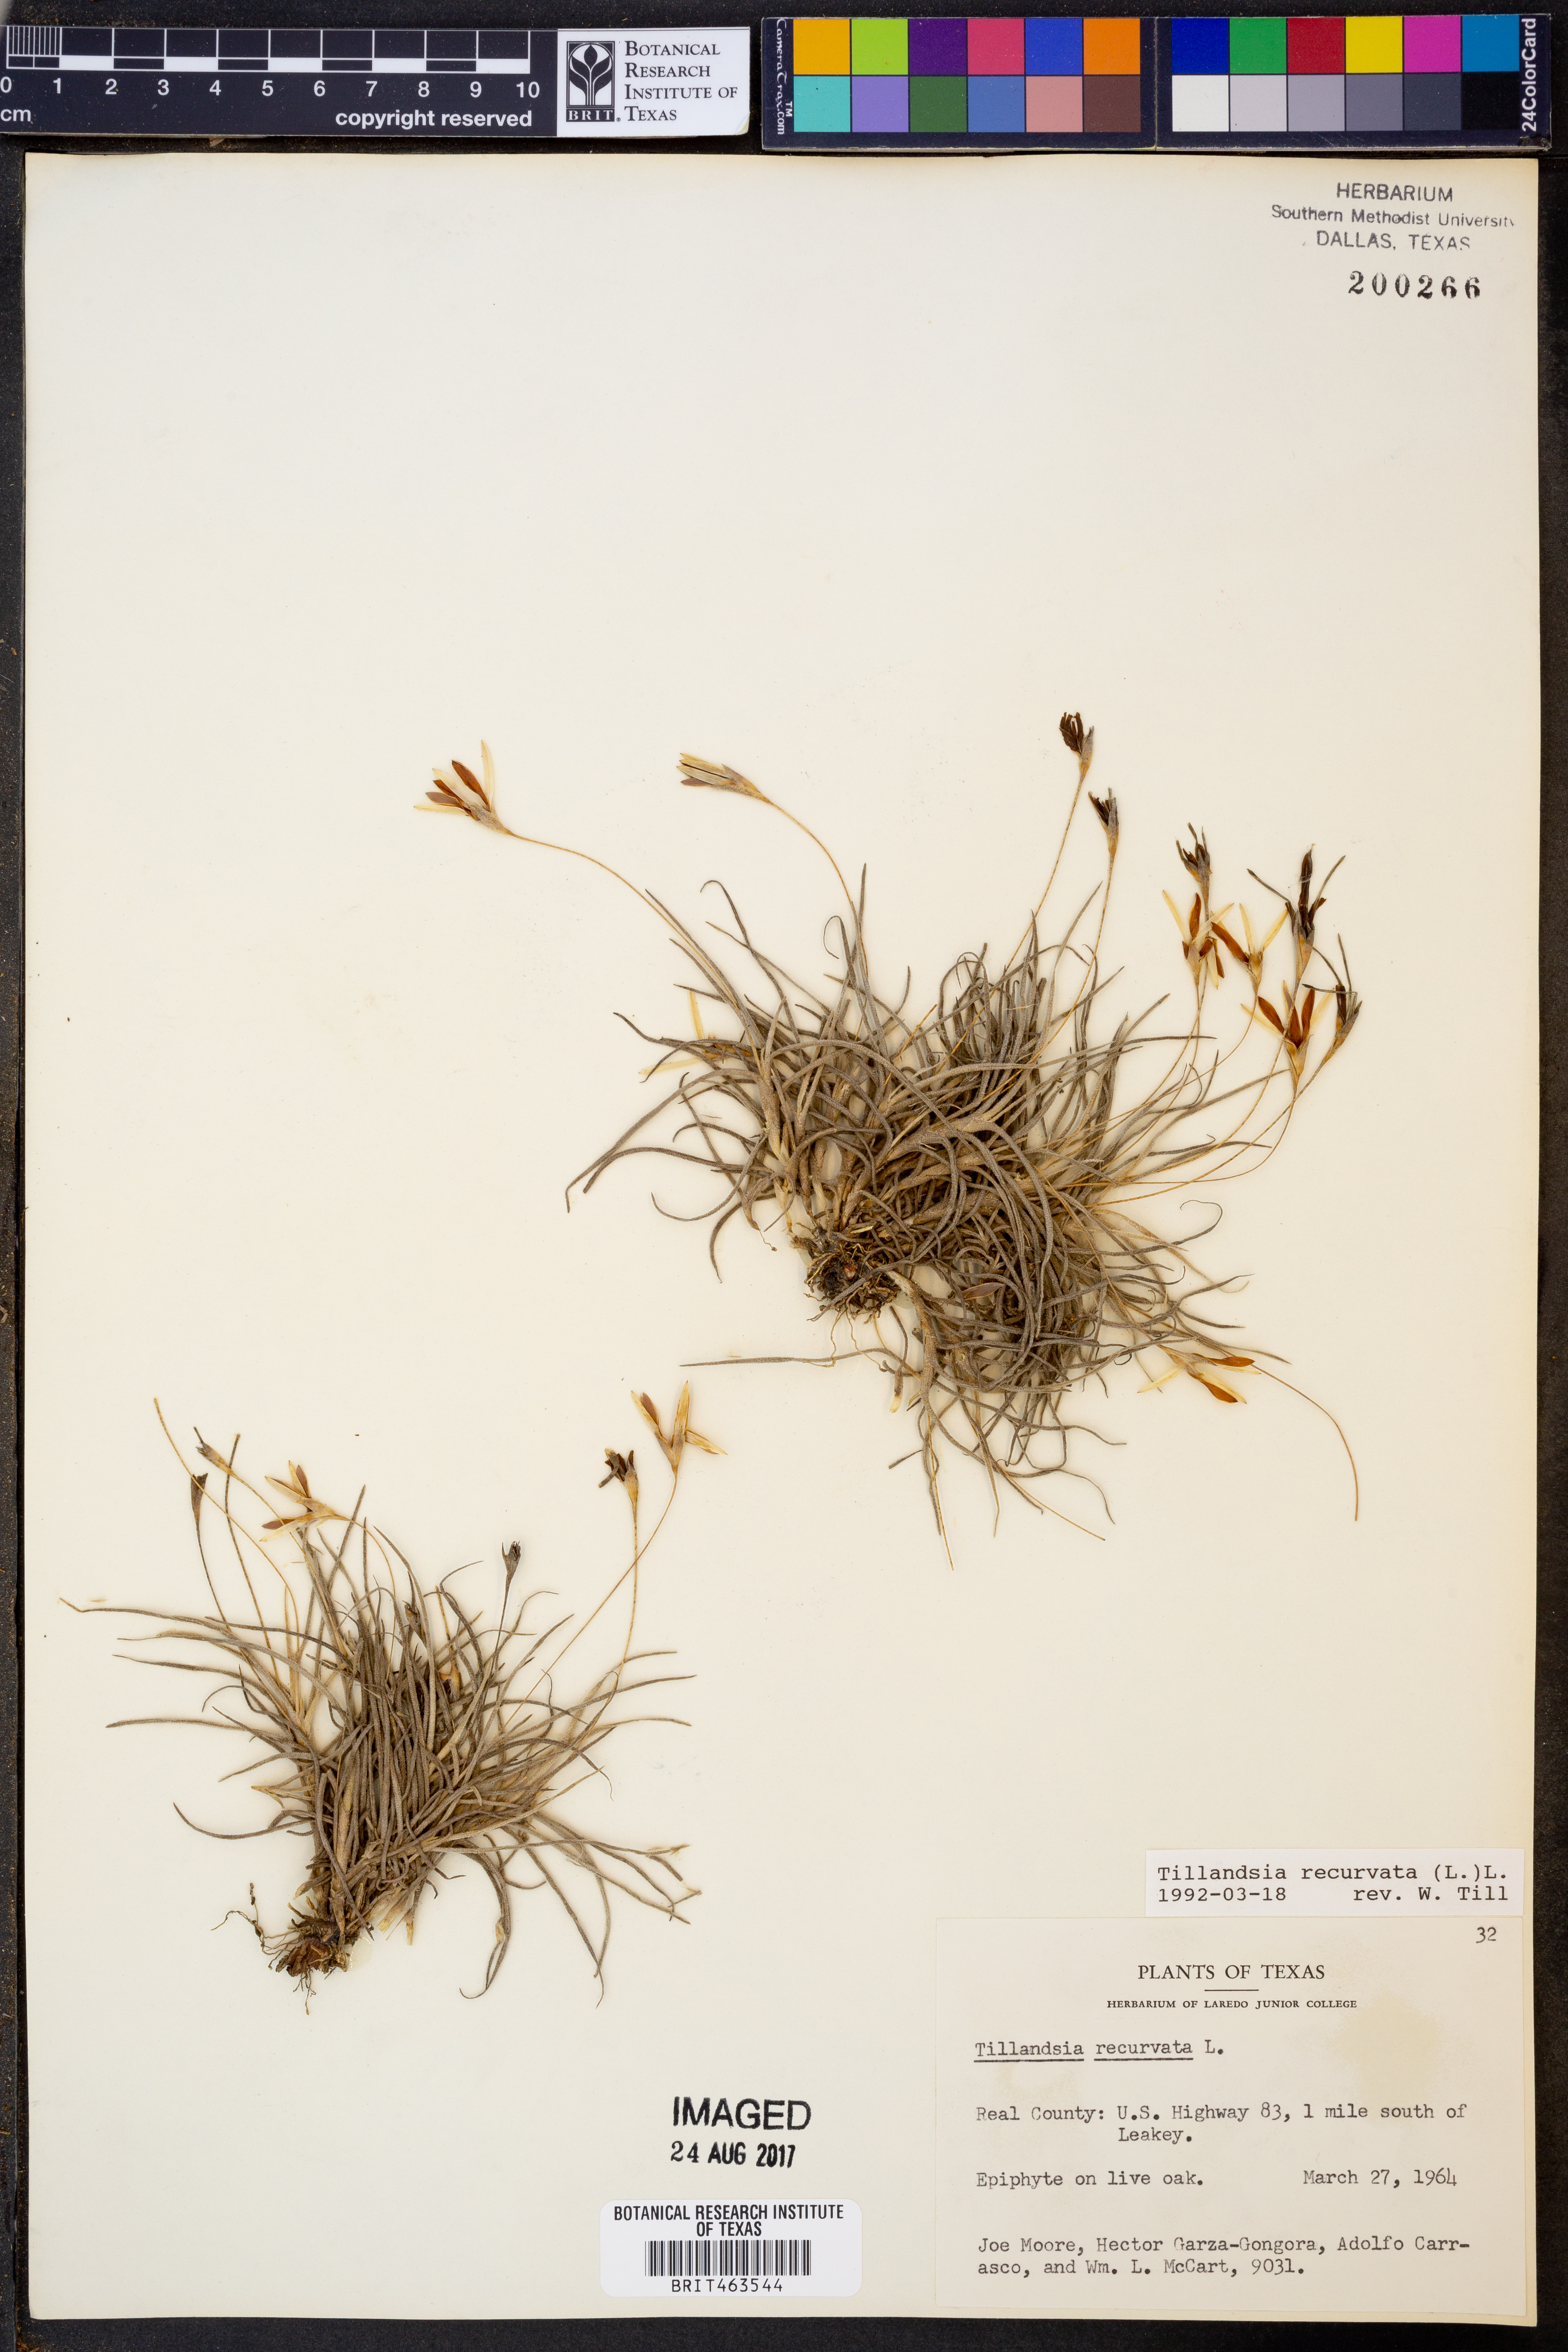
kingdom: Plantae
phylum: Tracheophyta
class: Liliopsida
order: Poales
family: Bromeliaceae
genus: Tillandsia
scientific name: Tillandsia recurvata
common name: Small ballmoss
